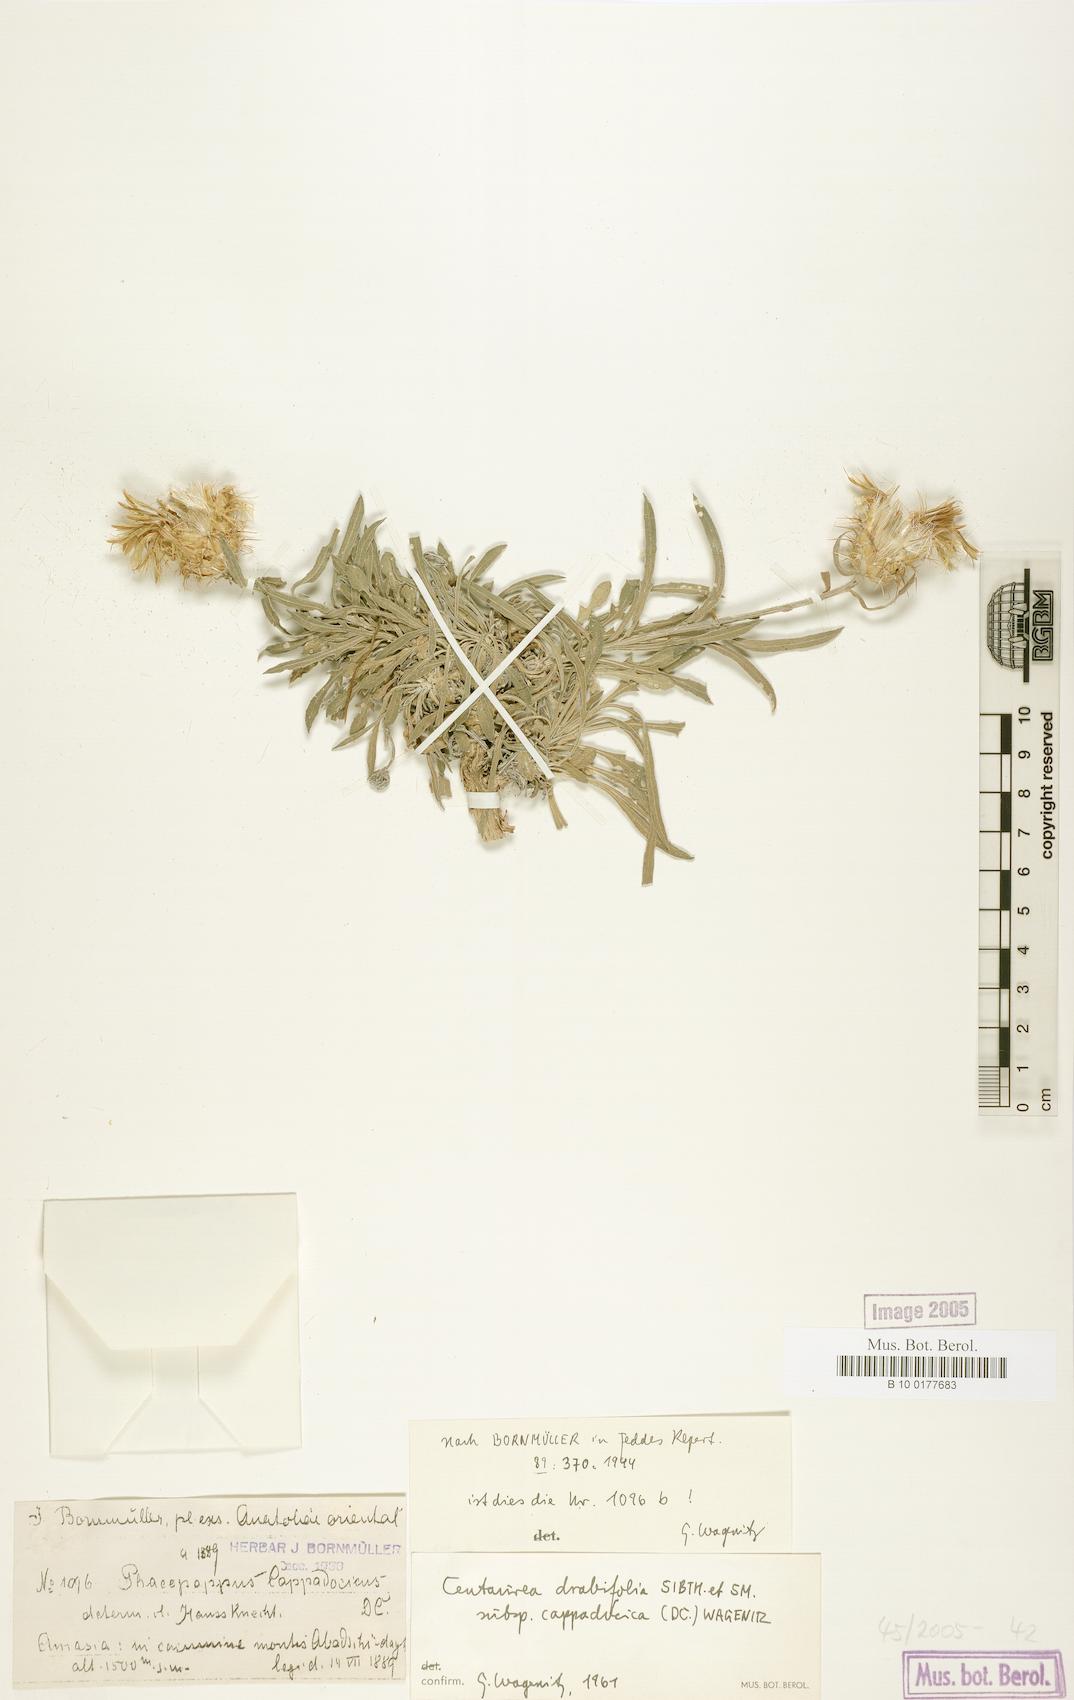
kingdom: Plantae
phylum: Tracheophyta
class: Magnoliopsida
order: Asterales
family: Asteraceae
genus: Centaurea
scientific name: Centaurea drabifolia
